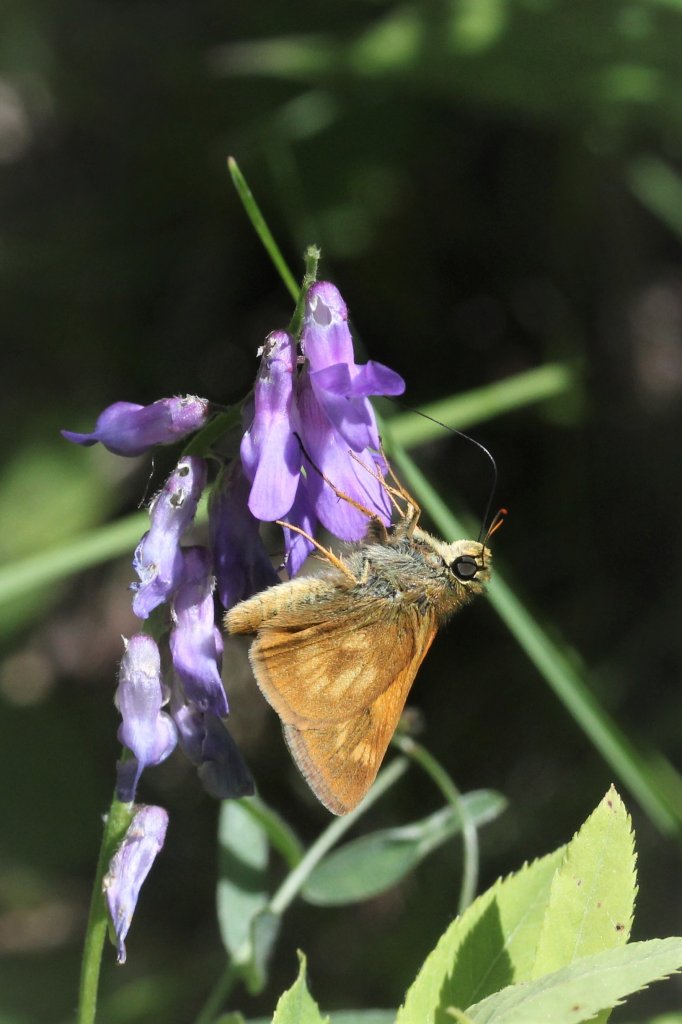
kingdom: Animalia
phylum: Arthropoda
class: Insecta
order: Lepidoptera
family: Hesperiidae
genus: Polites
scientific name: Polites
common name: Long Dash Skipper
